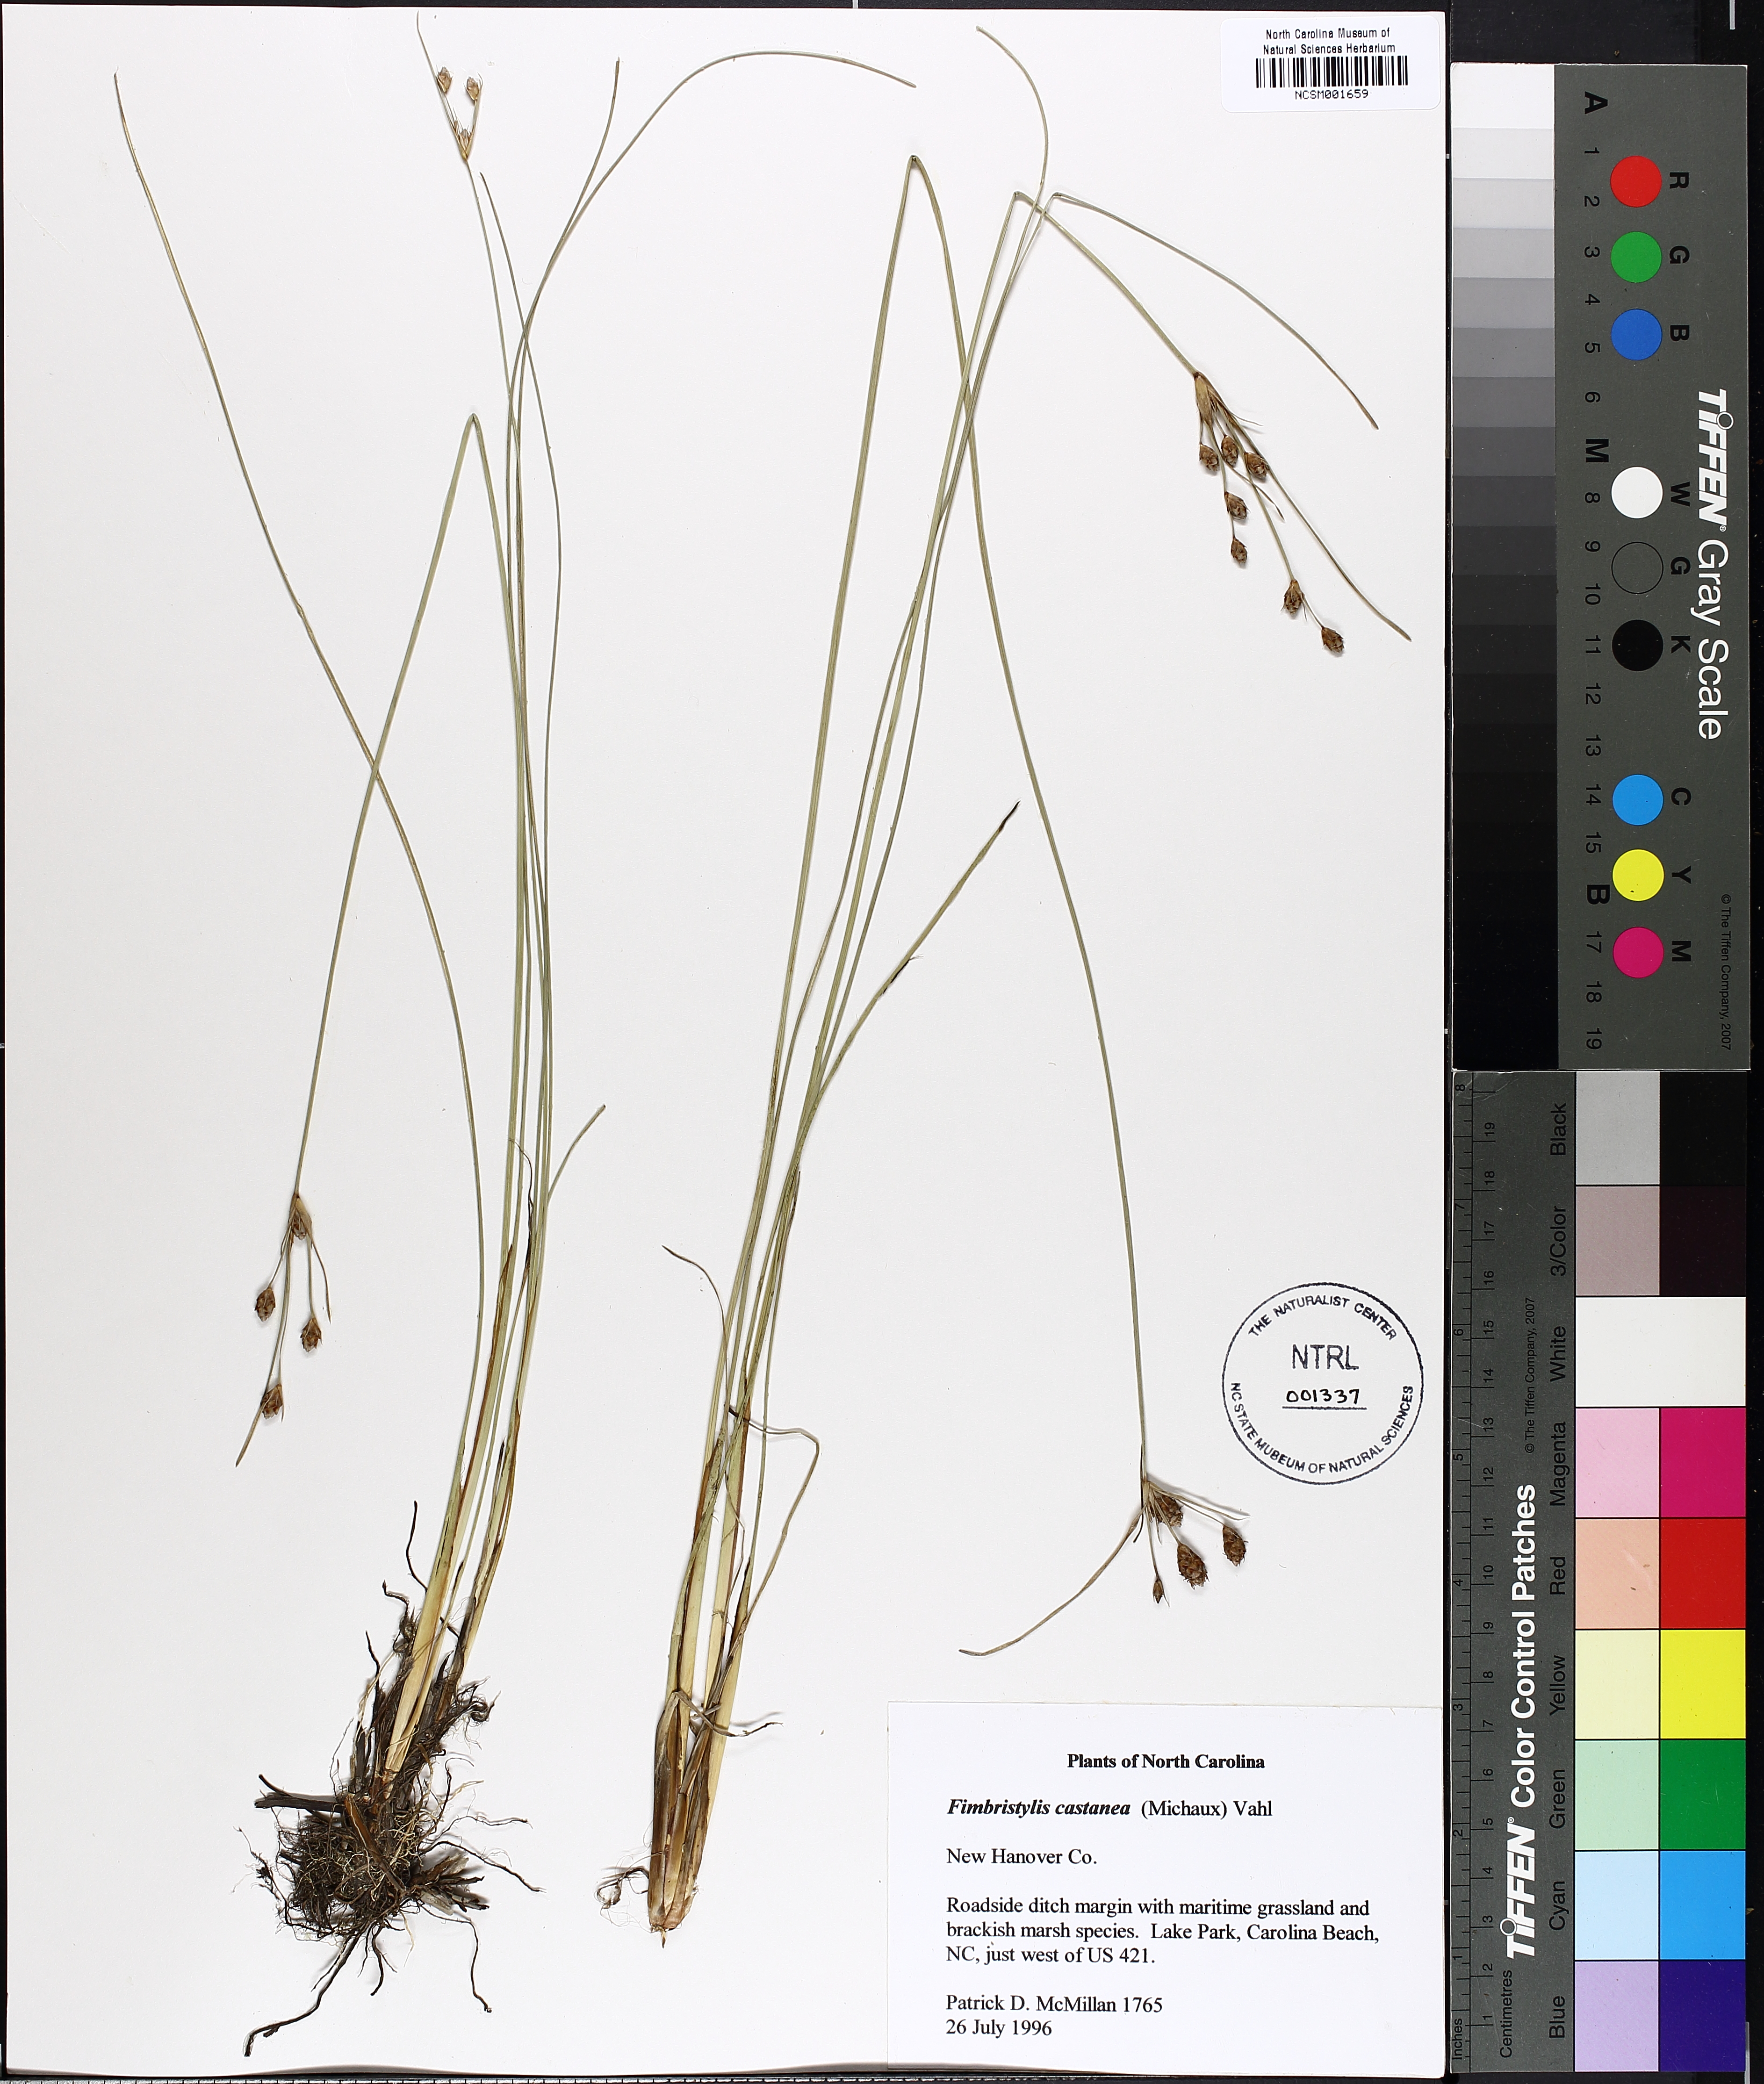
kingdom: Plantae
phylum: Tracheophyta
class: Liliopsida
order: Poales
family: Cyperaceae
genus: Fimbristylis
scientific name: Fimbristylis spadicea
